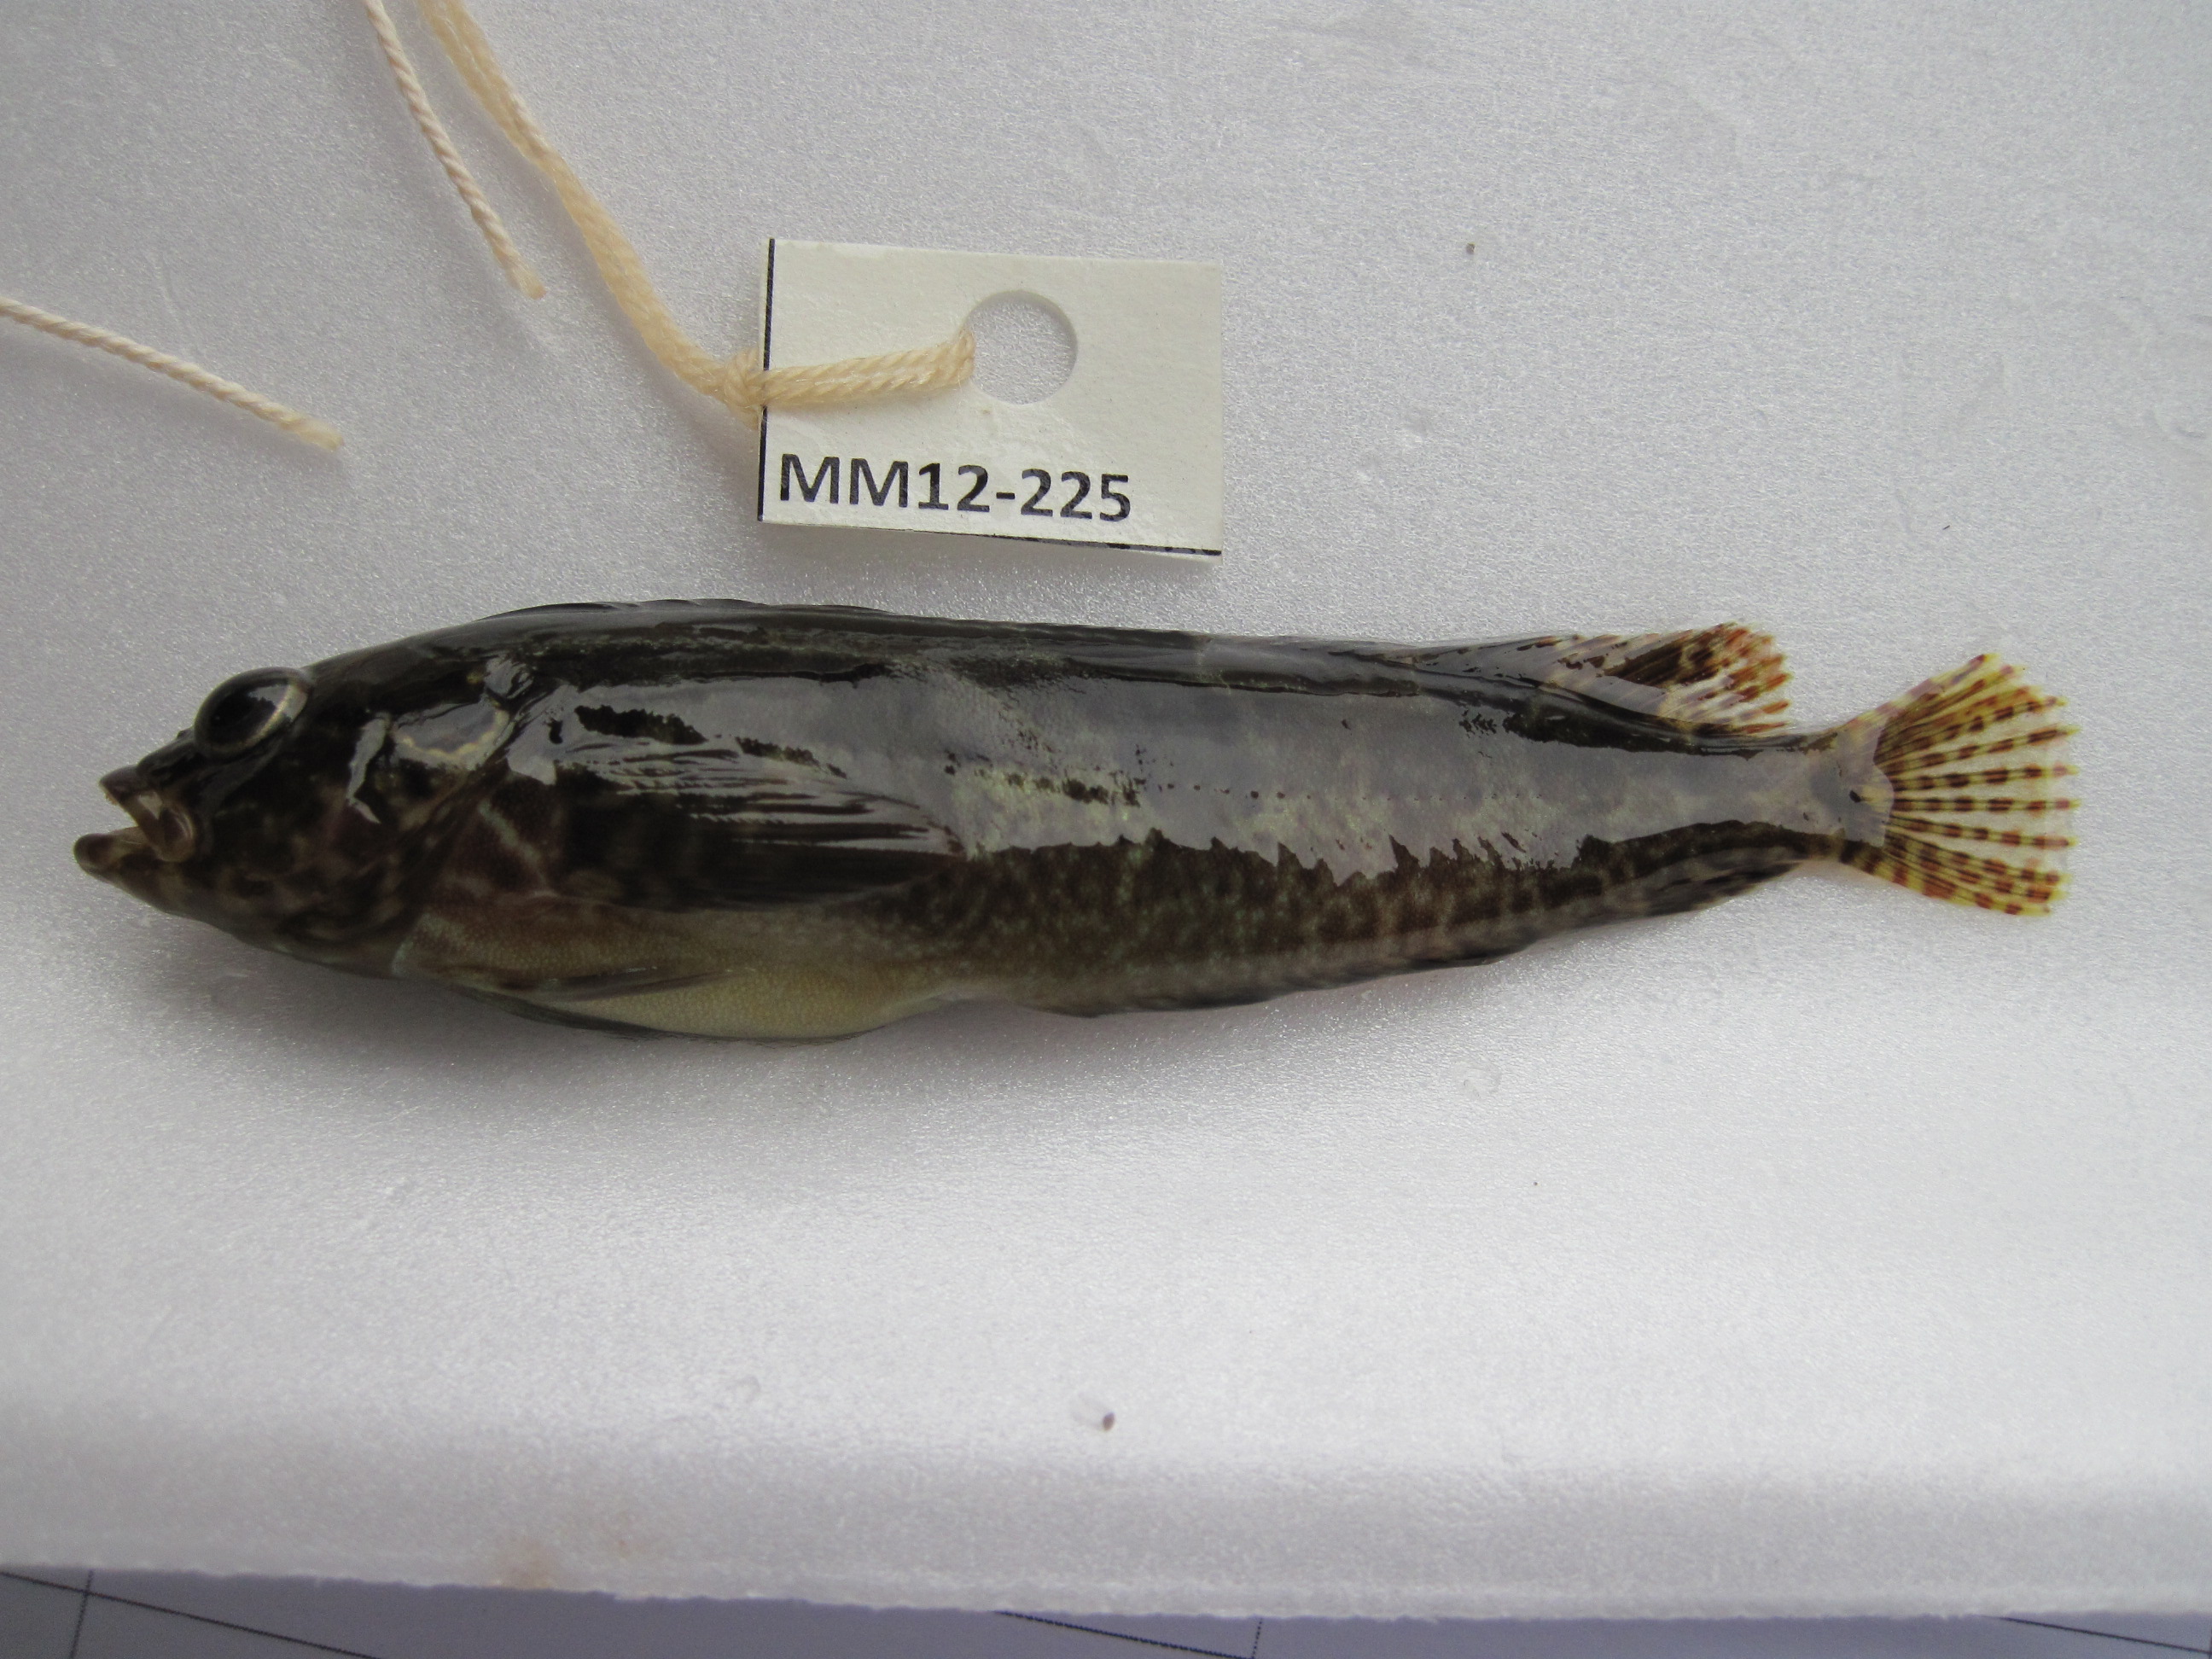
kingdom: Animalia
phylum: Chordata
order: Perciformes
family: Clinidae
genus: Clinus
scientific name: Clinus cottoides
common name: Bluntnose klipfish
